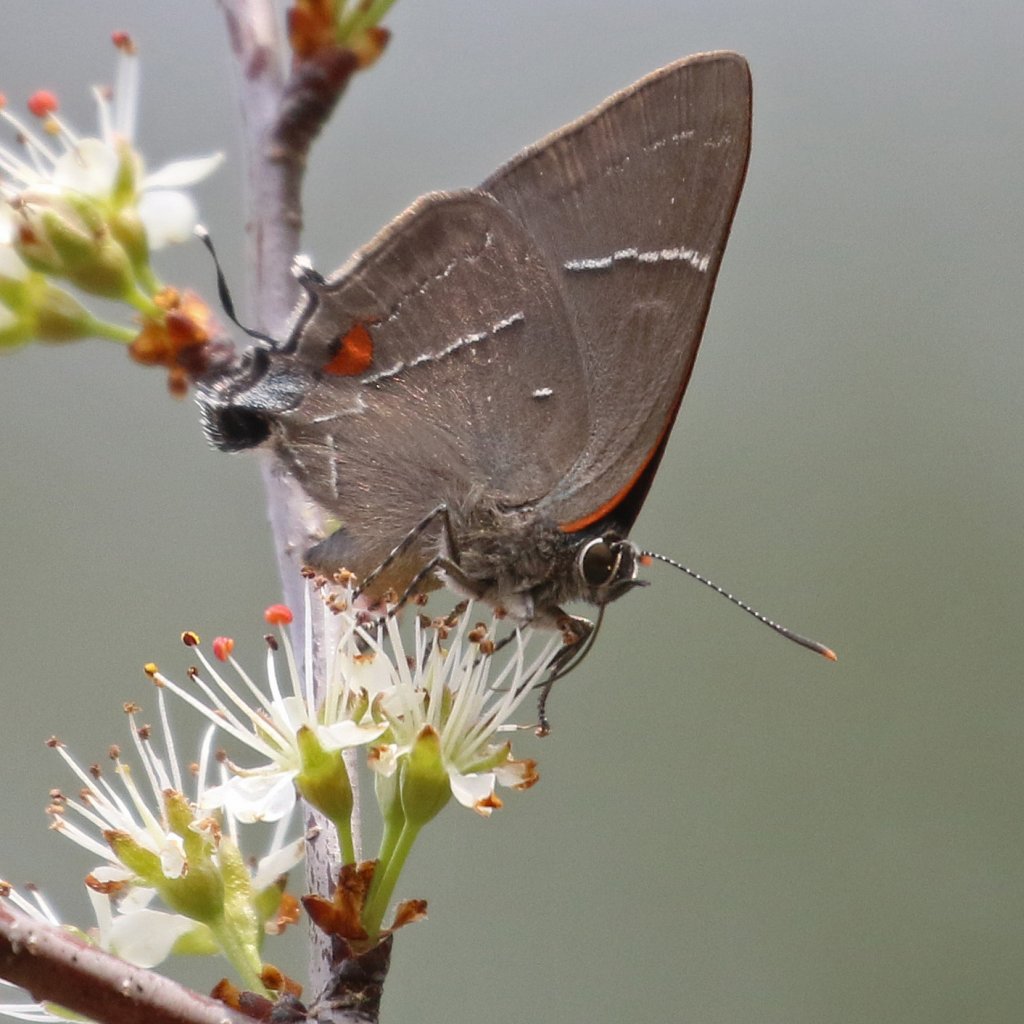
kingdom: Animalia
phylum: Arthropoda
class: Insecta
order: Lepidoptera
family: Lycaenidae
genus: Parrhasius
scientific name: Parrhasius m-album
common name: White-m Hairstreak
